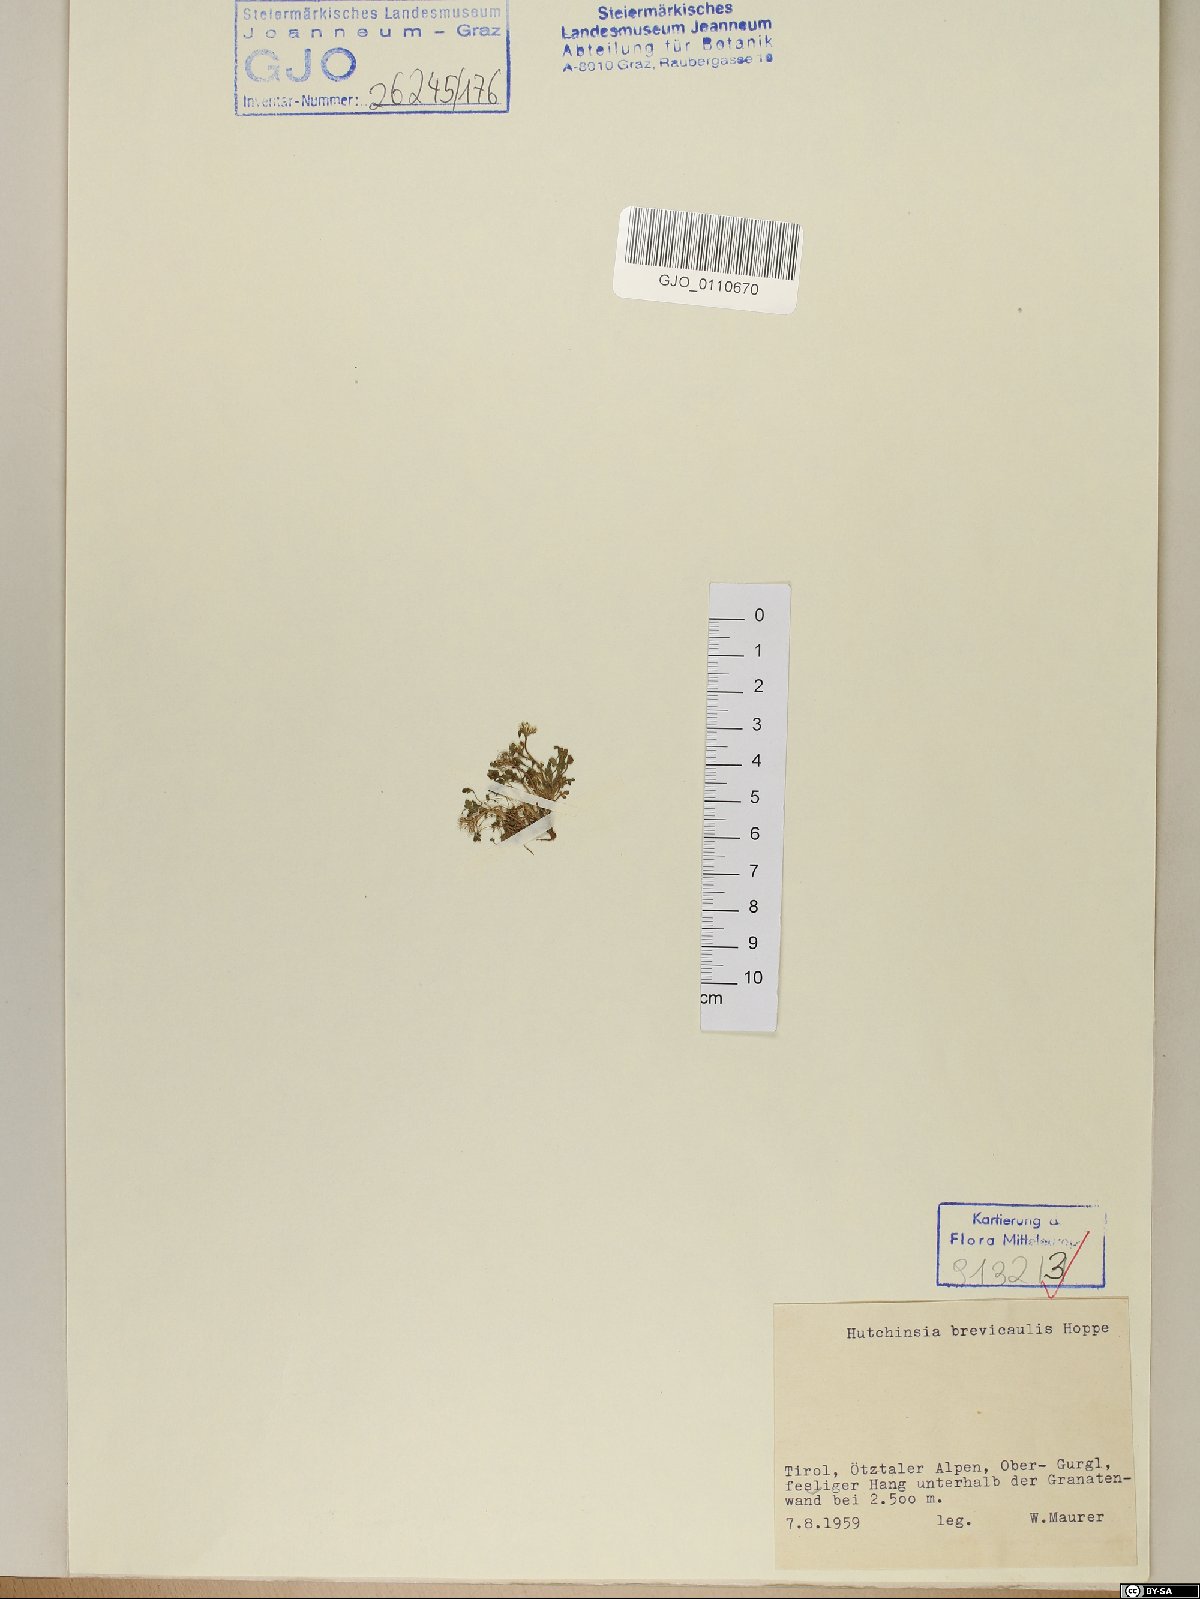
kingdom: Plantae
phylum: Tracheophyta
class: Magnoliopsida
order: Brassicales
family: Brassicaceae
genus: Hornungia
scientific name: Hornungia alpina
